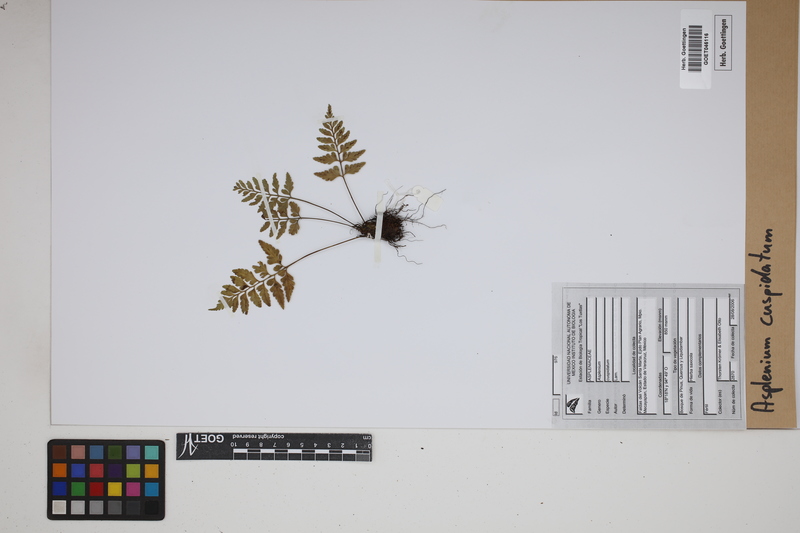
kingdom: Plantae
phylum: Tracheophyta
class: Polypodiopsida
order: Polypodiales
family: Aspleniaceae
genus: Asplenium
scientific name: Asplenium cuspidatum
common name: Eared spleenwort
